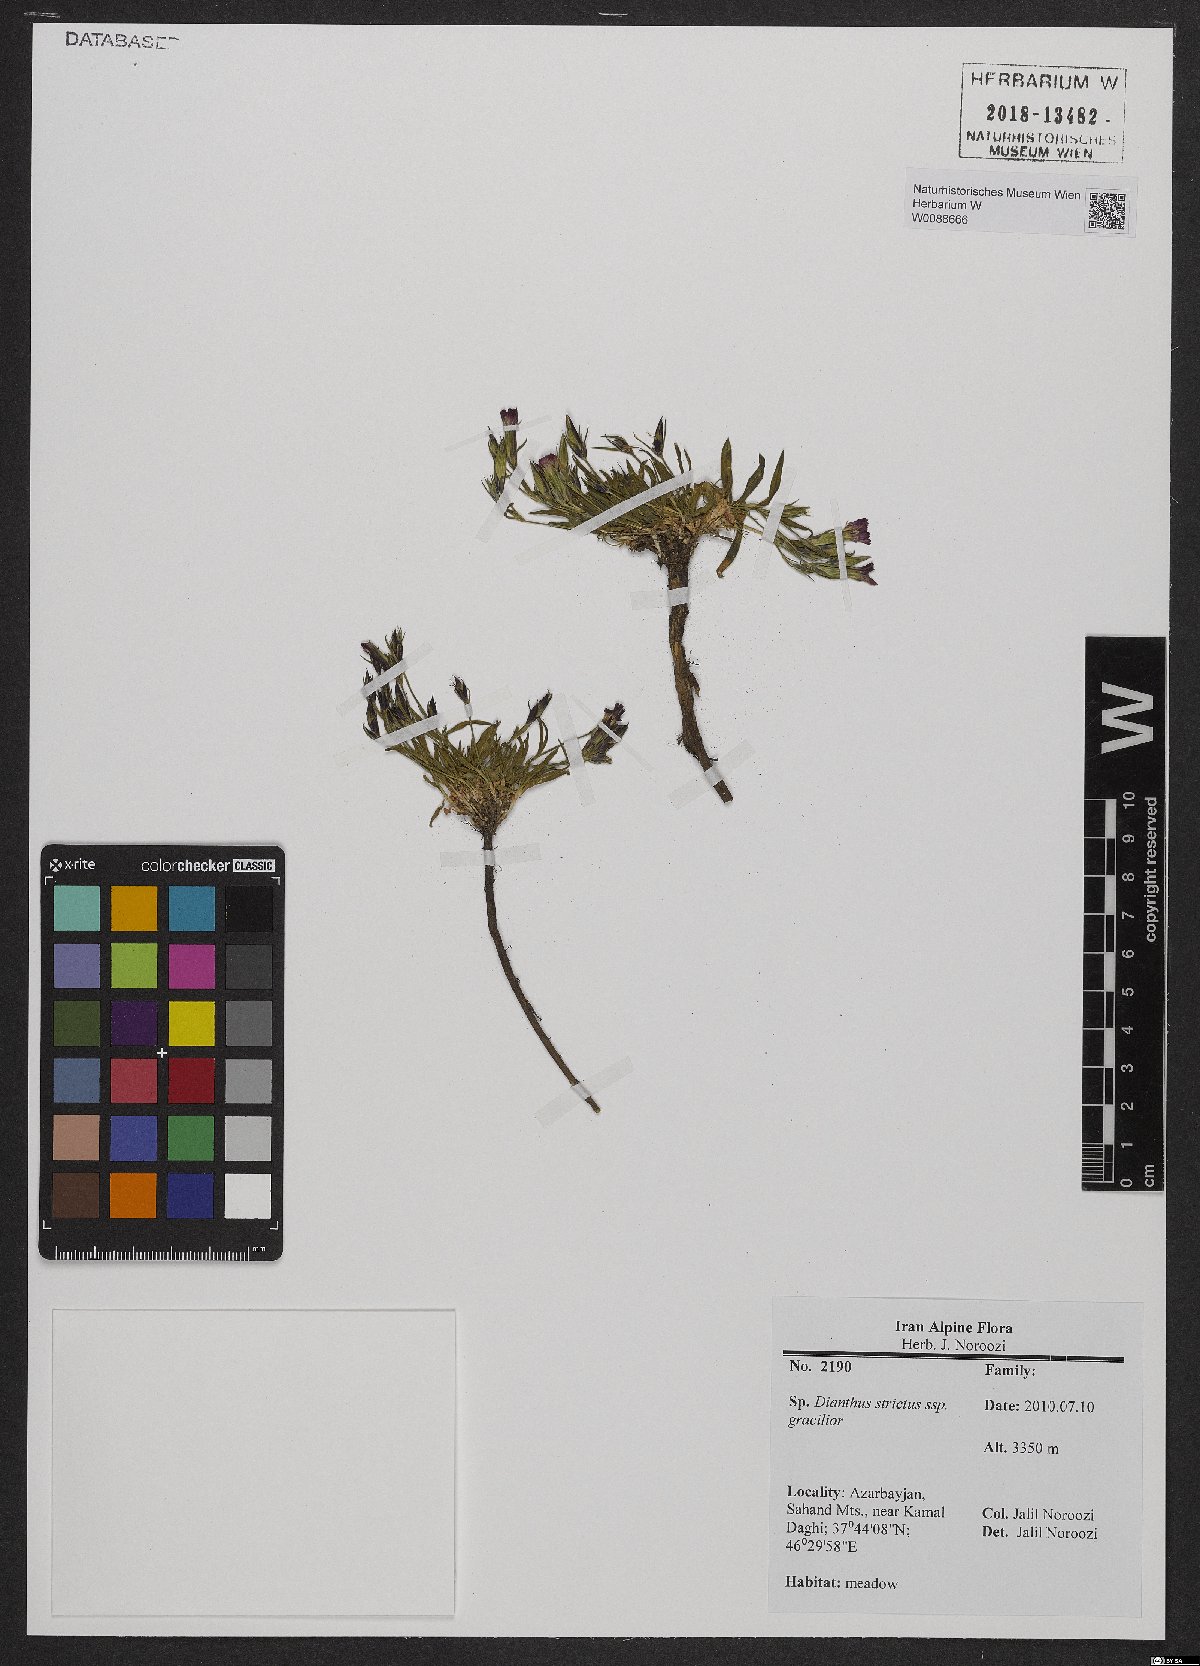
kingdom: Plantae
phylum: Tracheophyta
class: Magnoliopsida
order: Caryophyllales
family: Caryophyllaceae
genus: Dianthus
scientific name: Dianthus strictus
